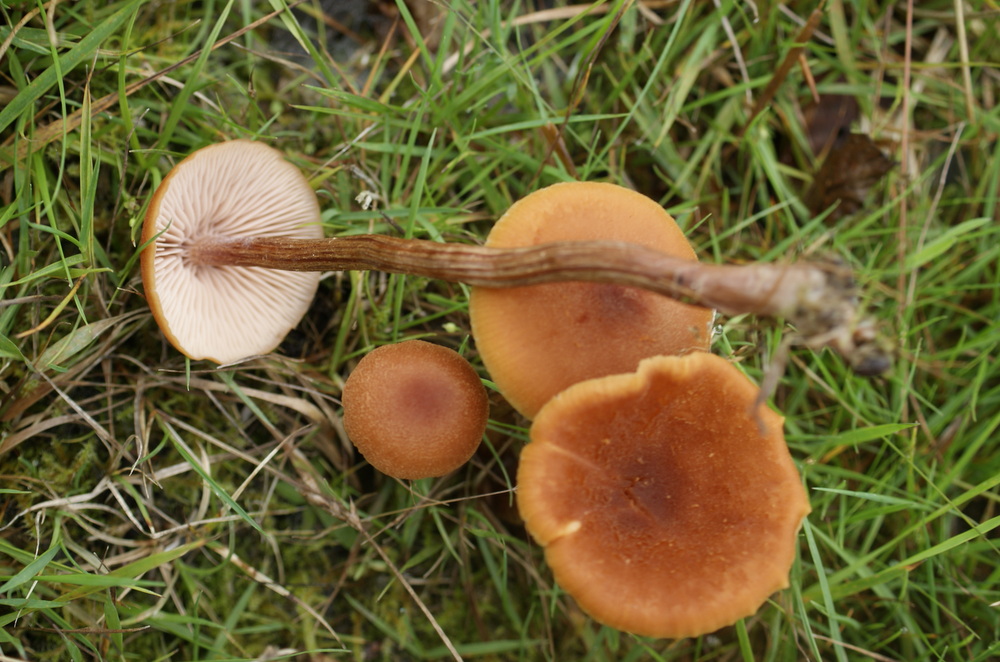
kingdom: Fungi
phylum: Basidiomycota
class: Agaricomycetes
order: Agaricales
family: Hydnangiaceae
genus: Laccaria
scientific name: Laccaria proxima
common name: stor ametysthat
